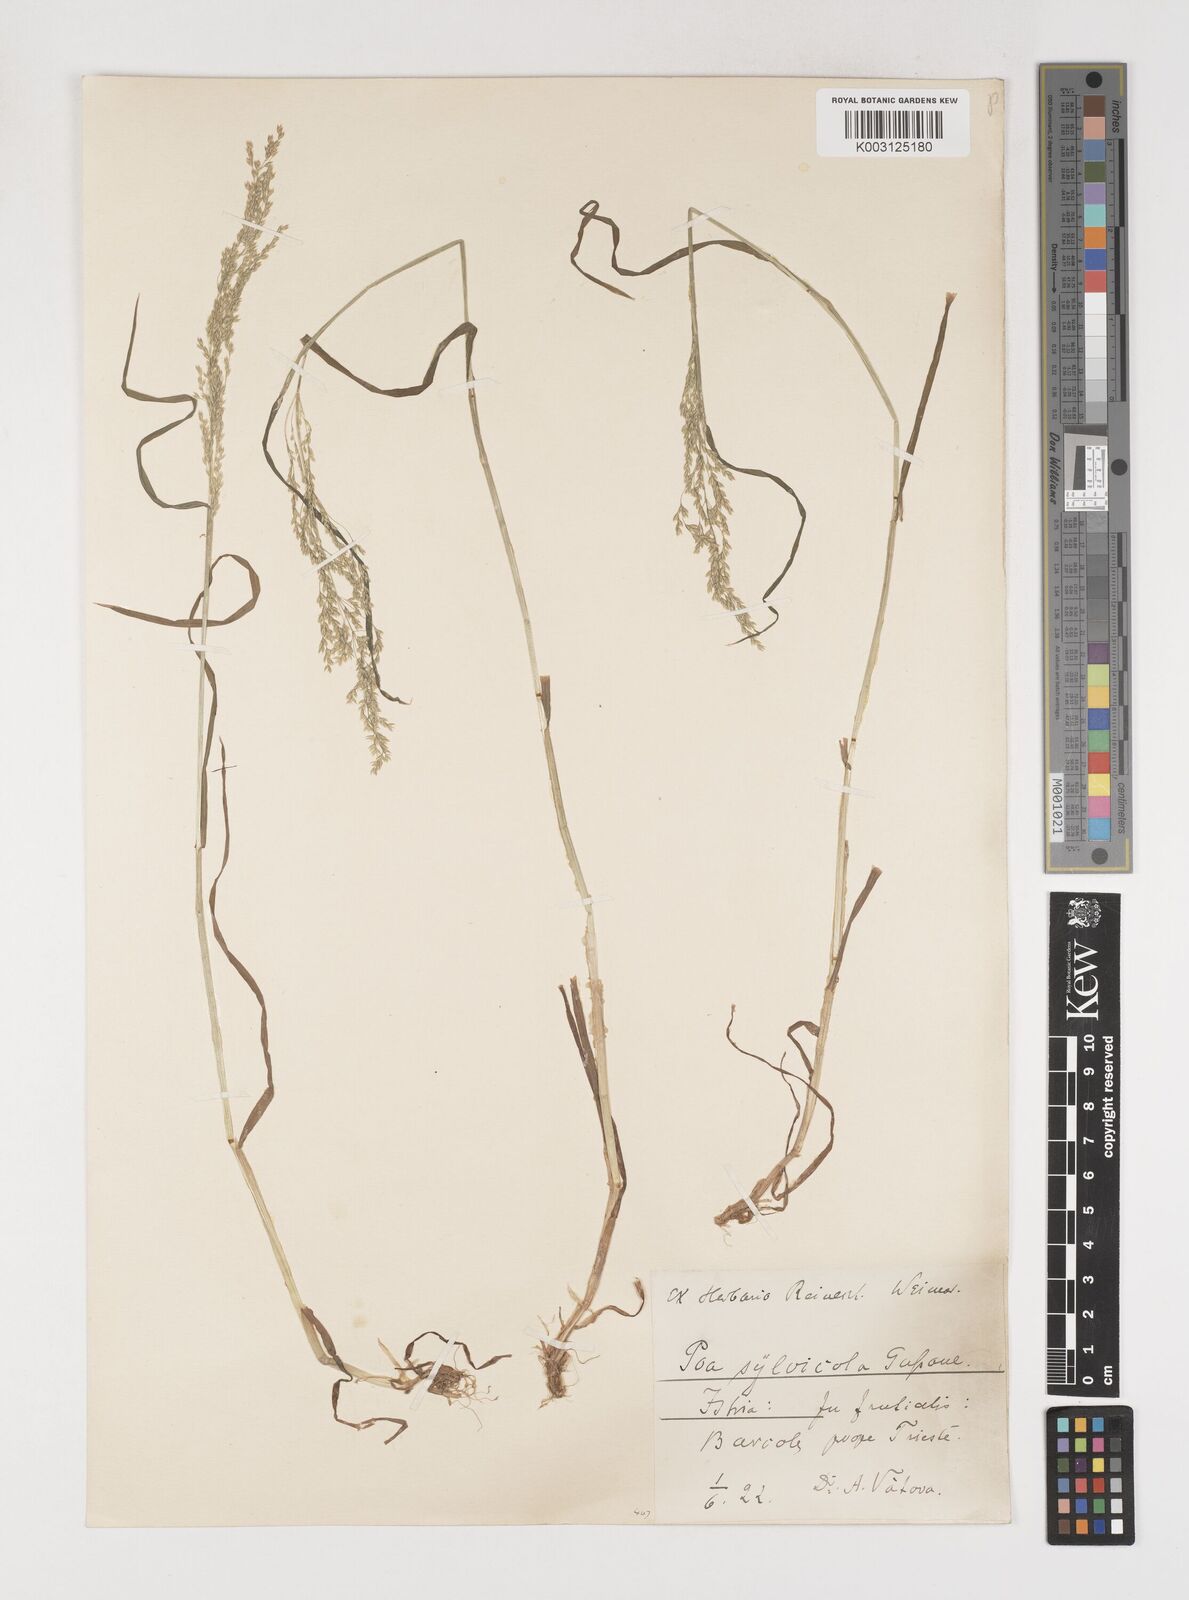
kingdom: Plantae
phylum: Tracheophyta
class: Liliopsida
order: Poales
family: Poaceae
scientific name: Poaceae
